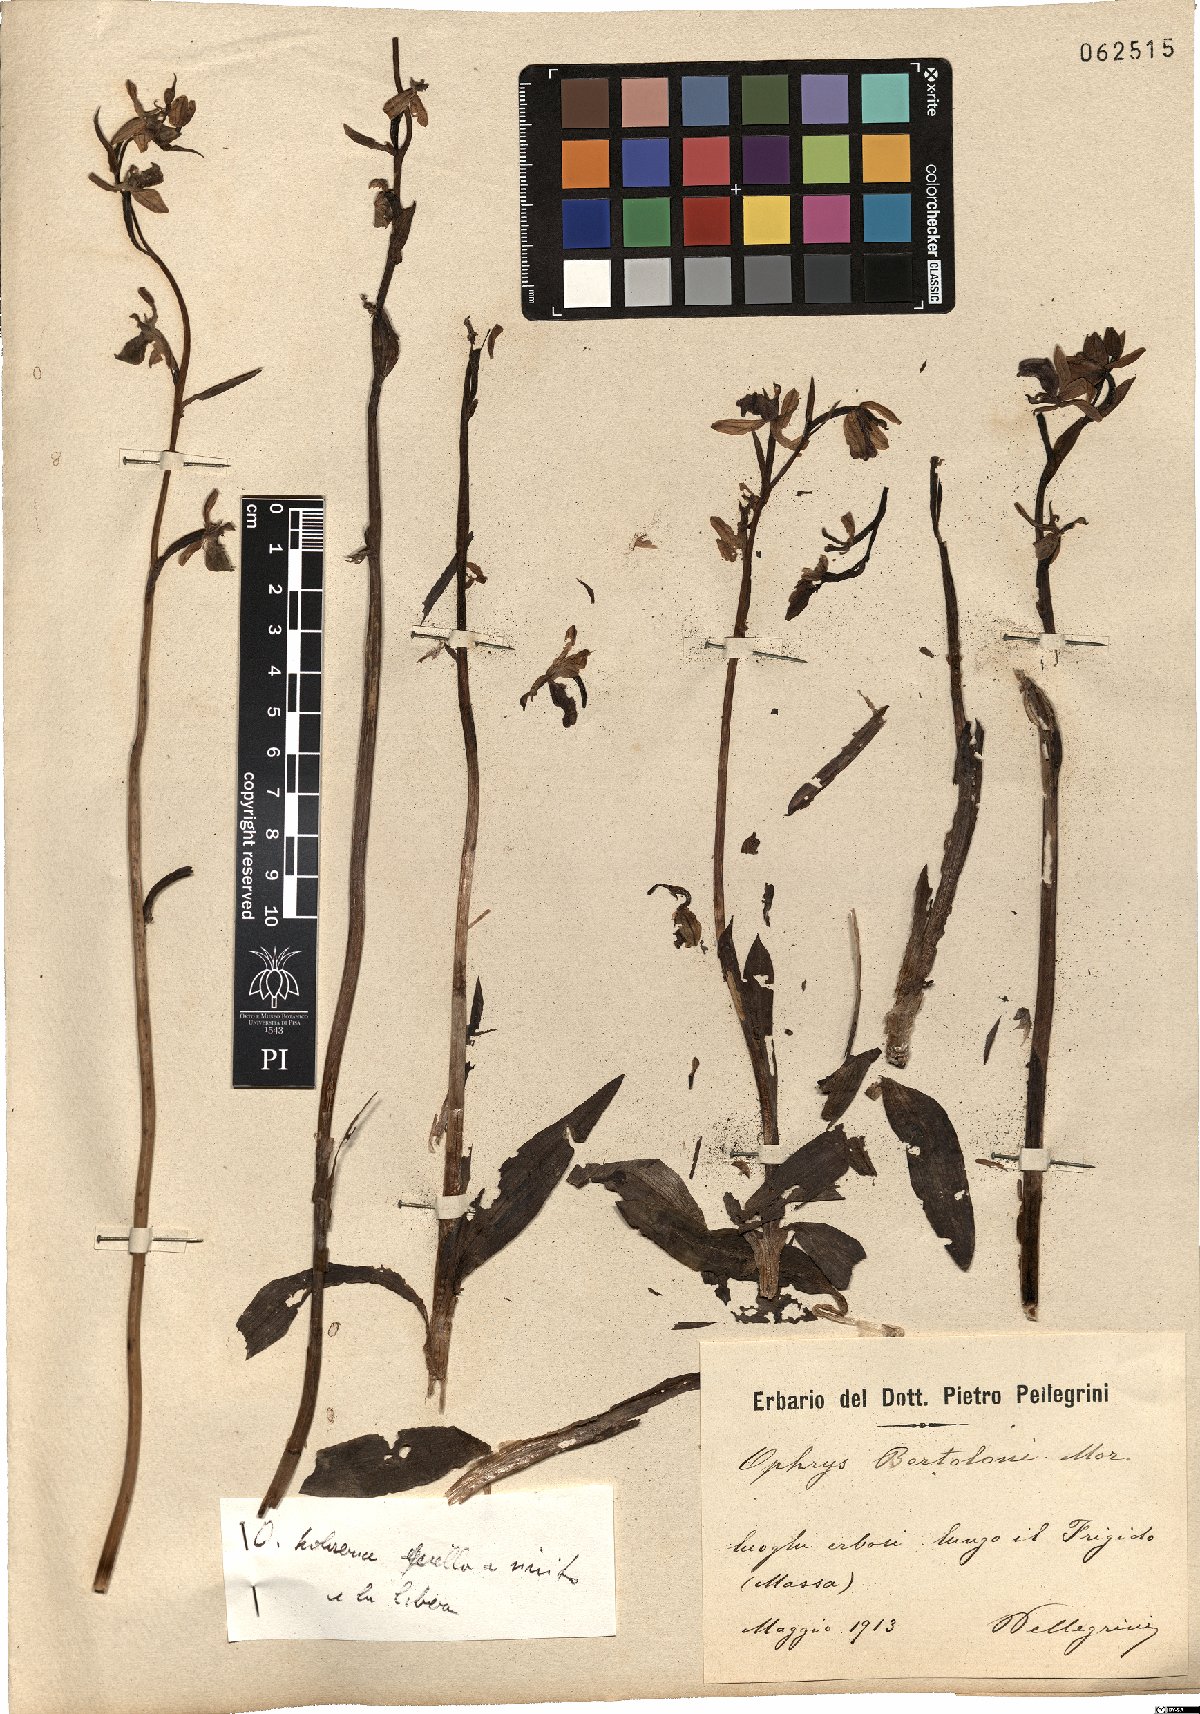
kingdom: Plantae
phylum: Tracheophyta
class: Liliopsida
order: Asparagales
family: Orchidaceae
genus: Ophrys
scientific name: Ophrys bertolonii
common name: Bertoloni's bee orchid
